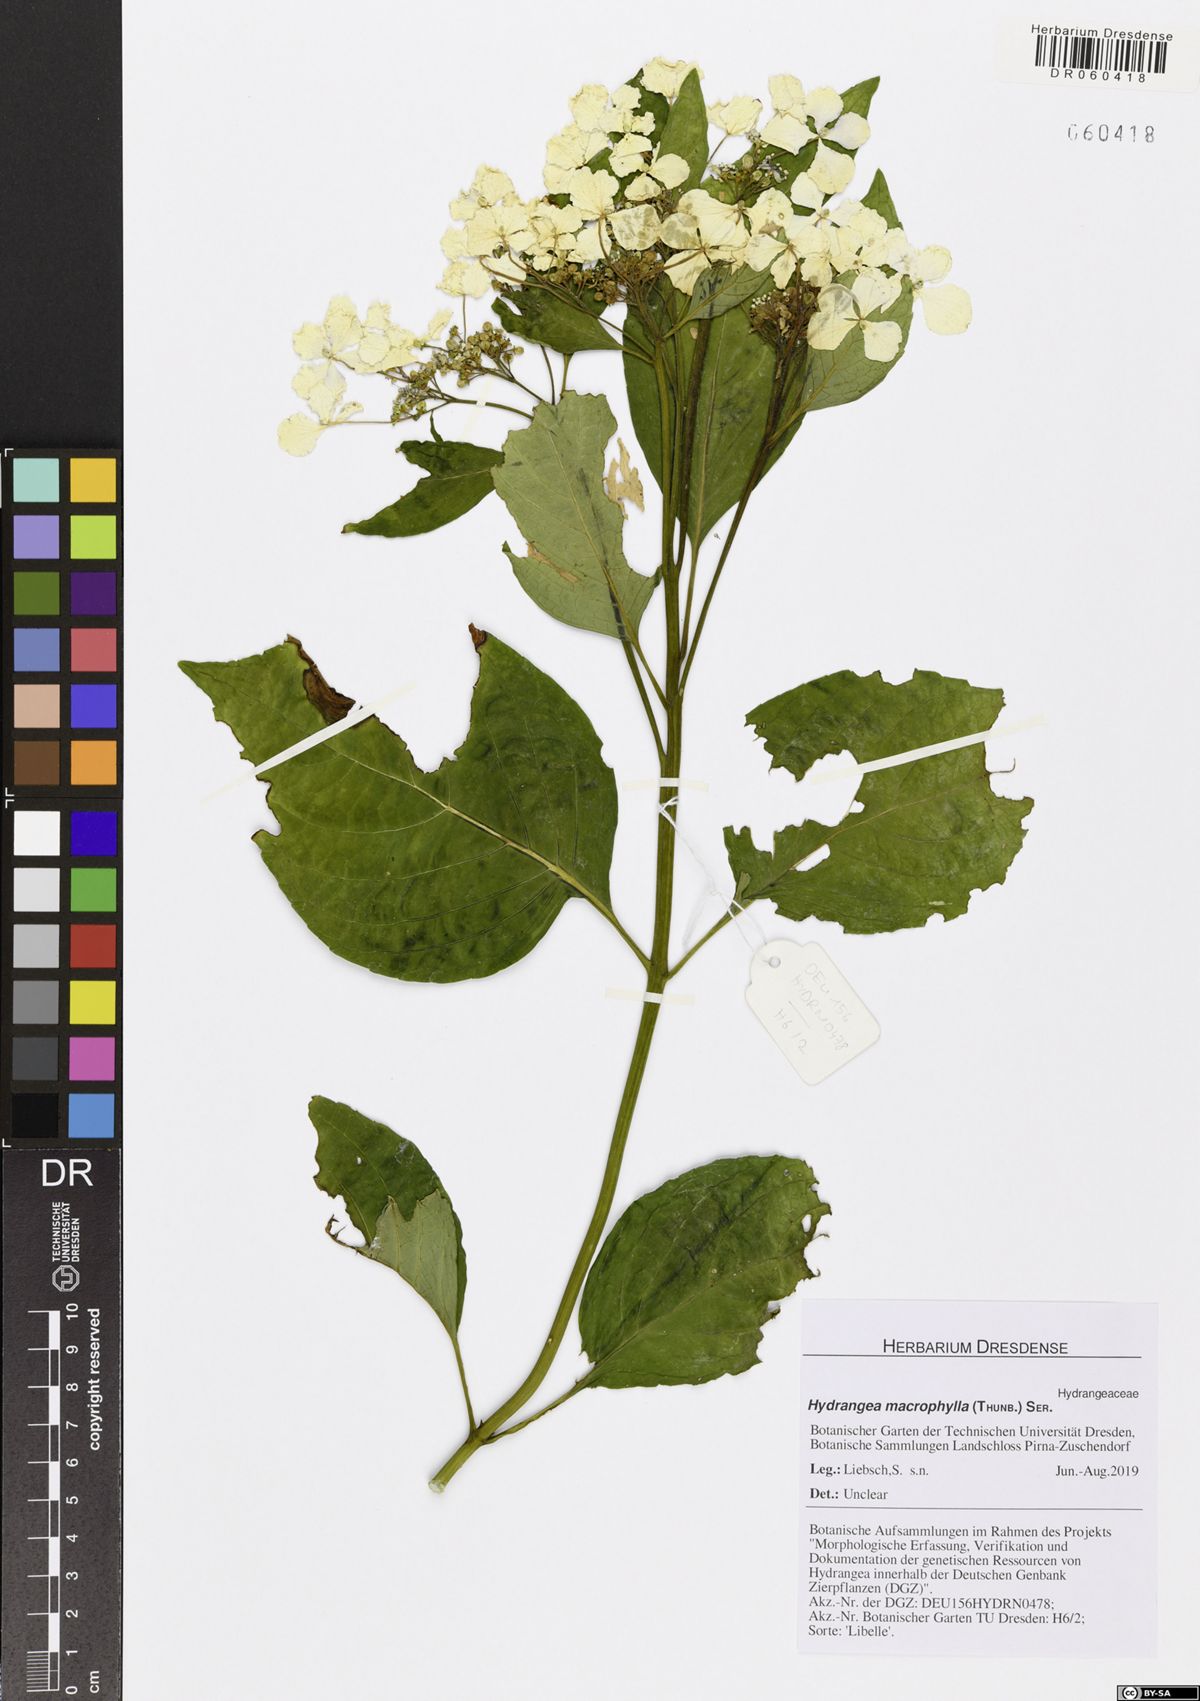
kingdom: Plantae
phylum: Tracheophyta
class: Magnoliopsida
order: Cornales
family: Hydrangeaceae
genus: Hydrangea
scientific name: Hydrangea macrophylla
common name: Hydrangea
